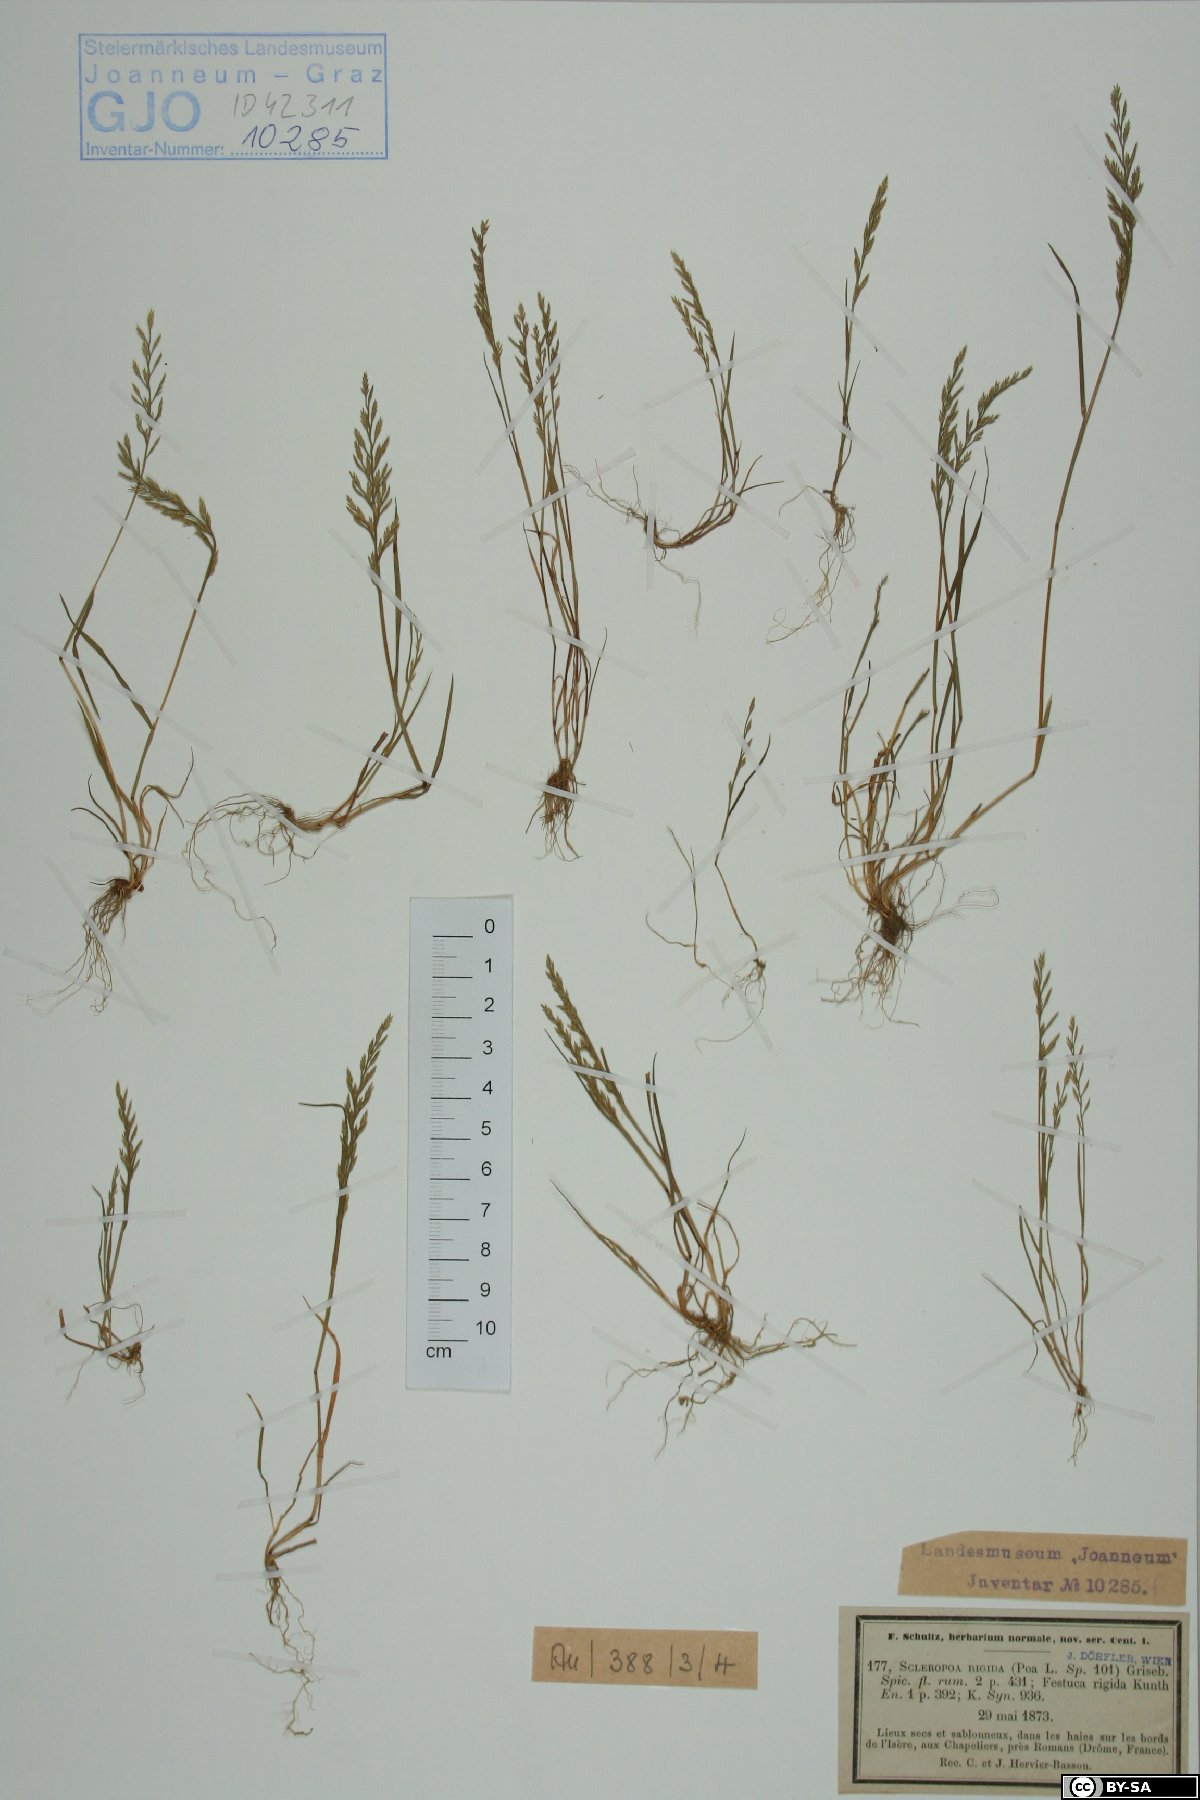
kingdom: Plantae
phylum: Tracheophyta
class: Liliopsida
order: Poales
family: Poaceae
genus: Catapodium
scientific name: Catapodium rigidum
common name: Fern-grass
